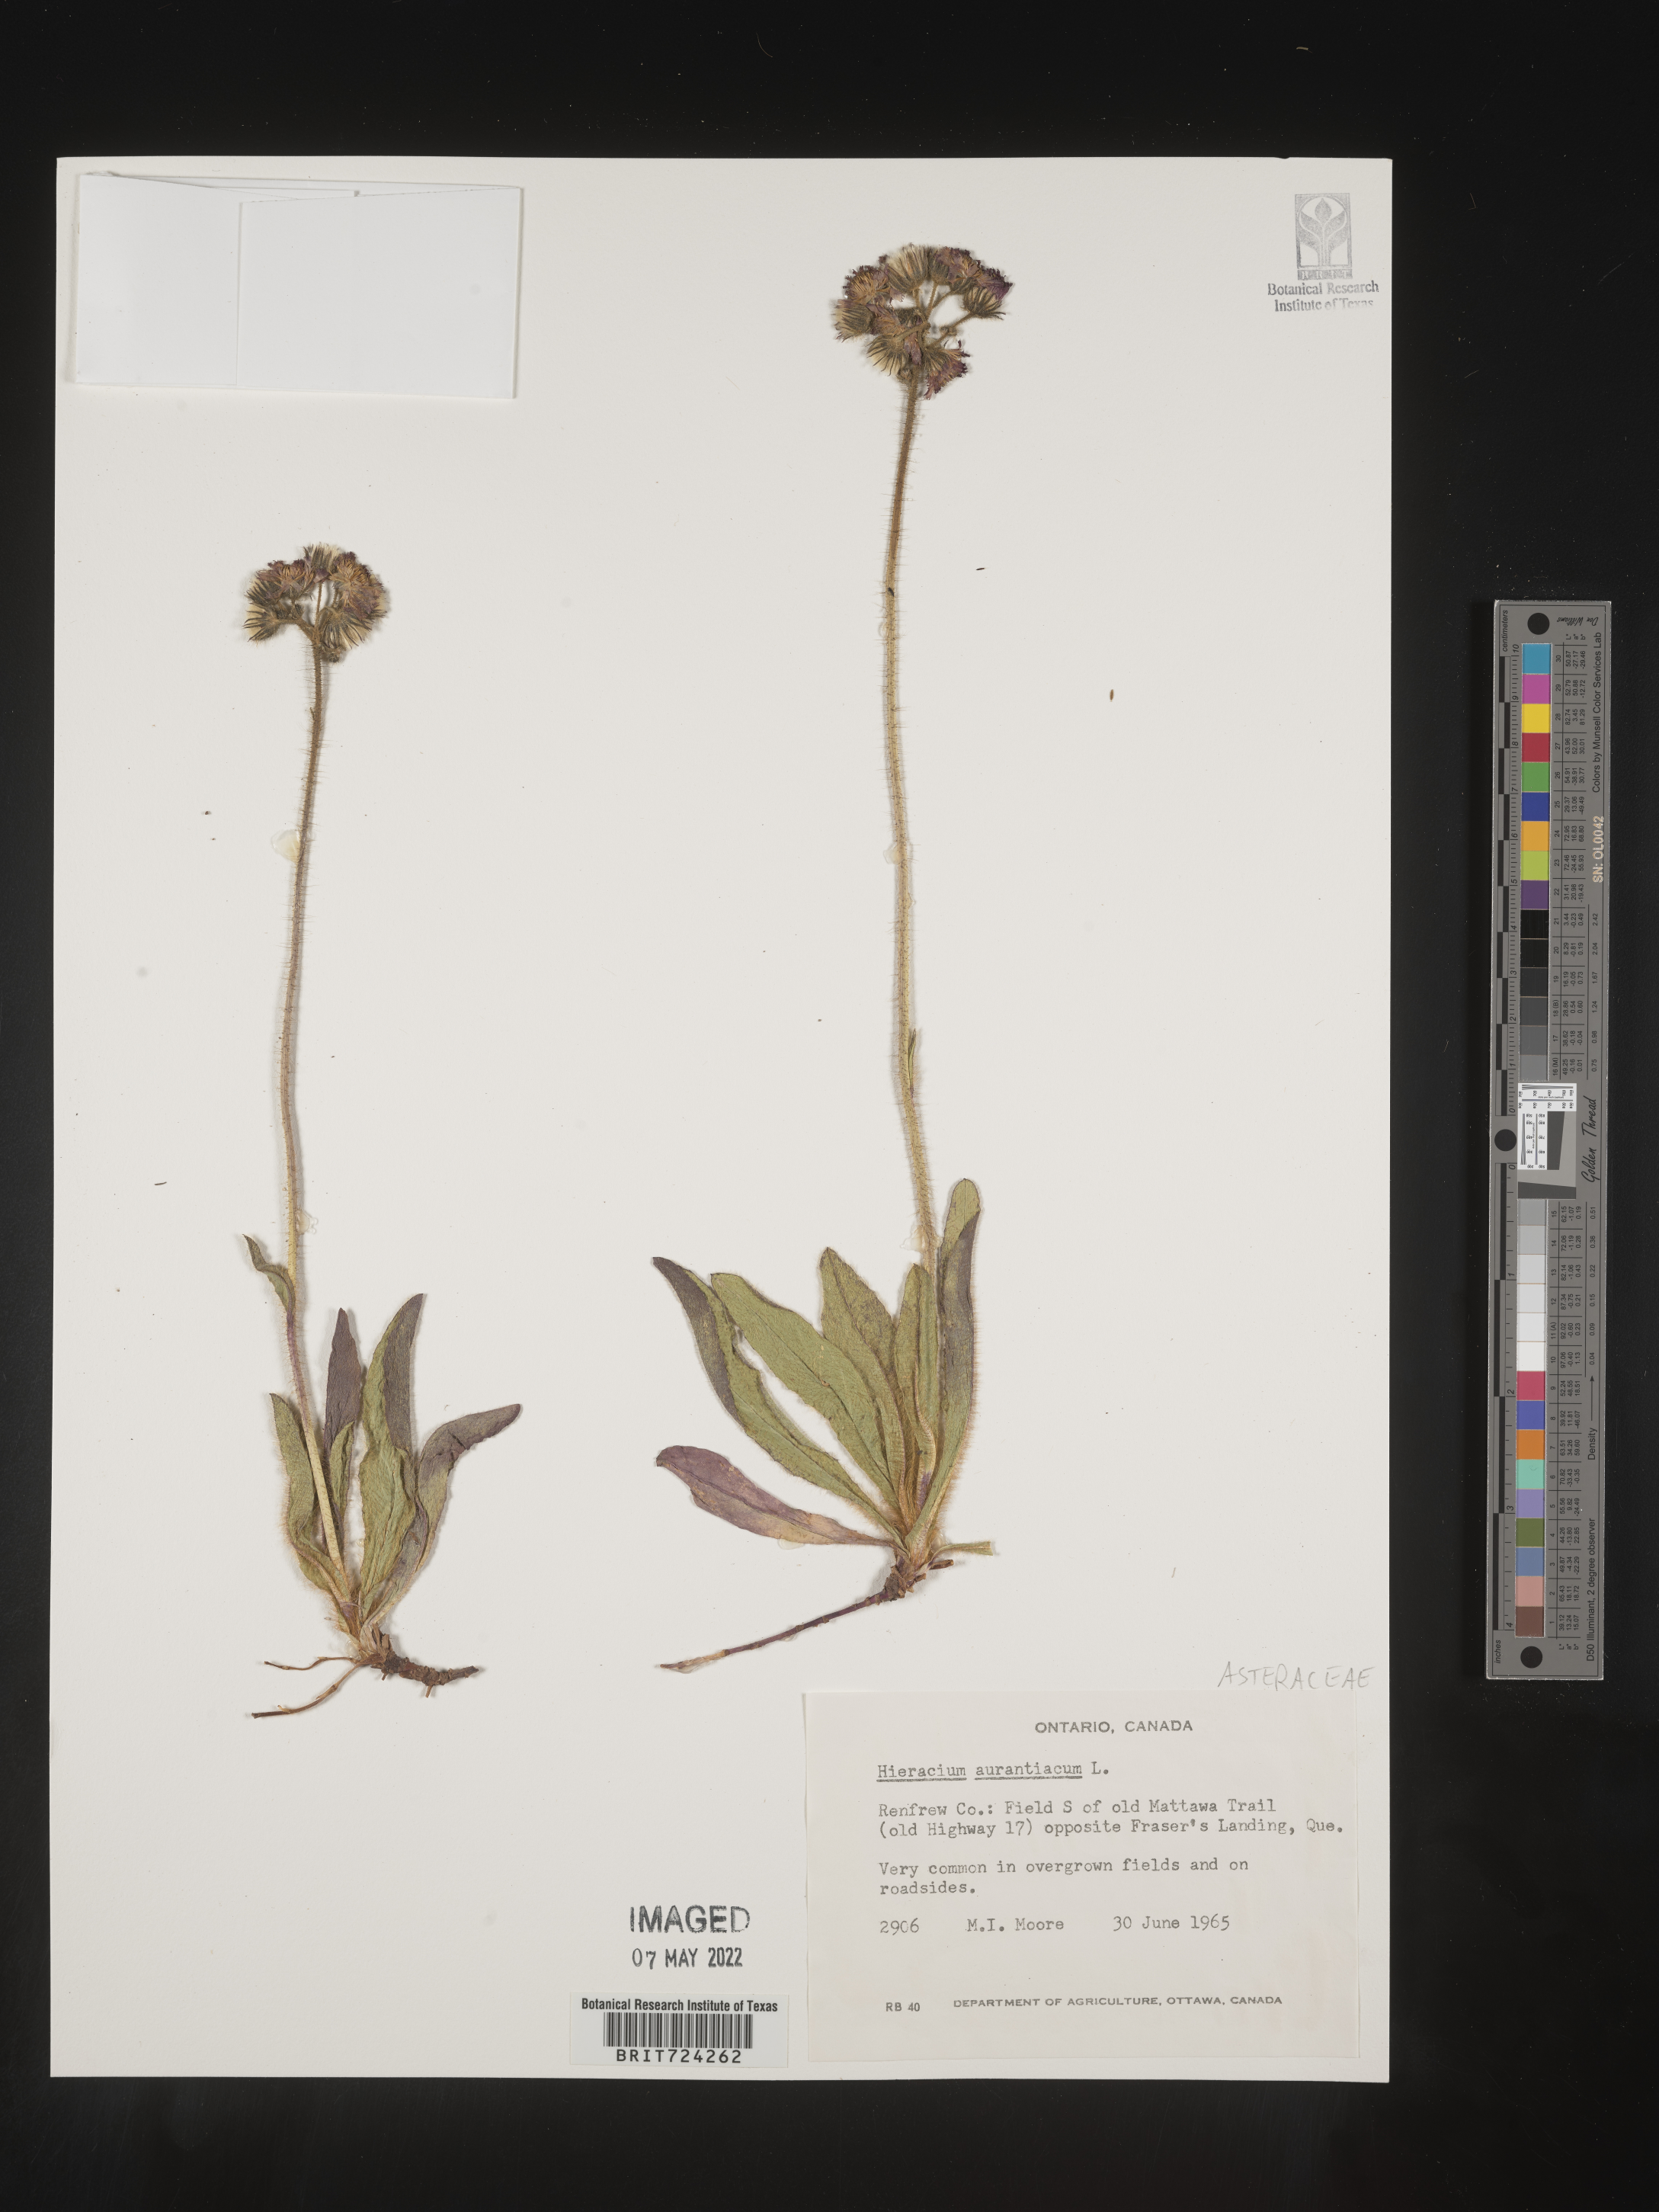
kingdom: Plantae
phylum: Tracheophyta
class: Magnoliopsida
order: Asterales
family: Asteraceae
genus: Pilosella
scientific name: Pilosella aurantiaca
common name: Fox-and-cubs
